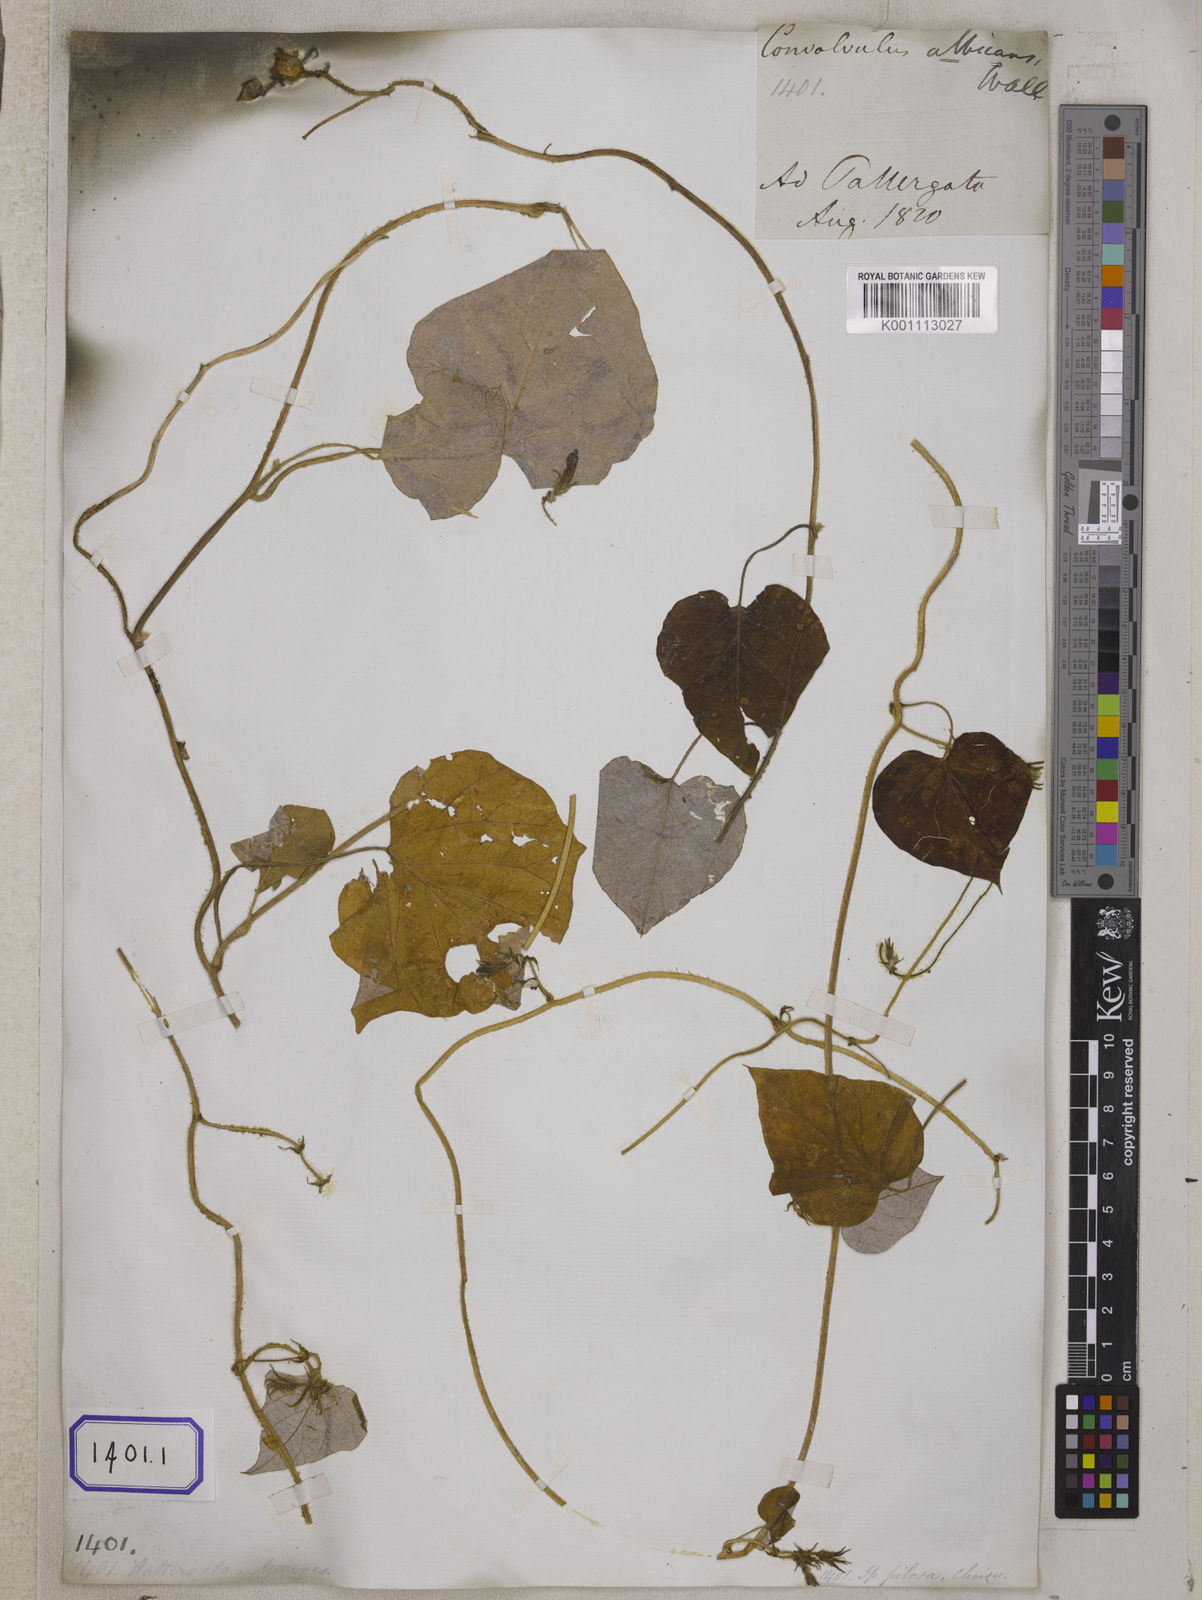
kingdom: Plantae
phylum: Tracheophyta
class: Magnoliopsida
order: Solanales
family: Convolvulaceae
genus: Convolvulus
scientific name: Convolvulus
